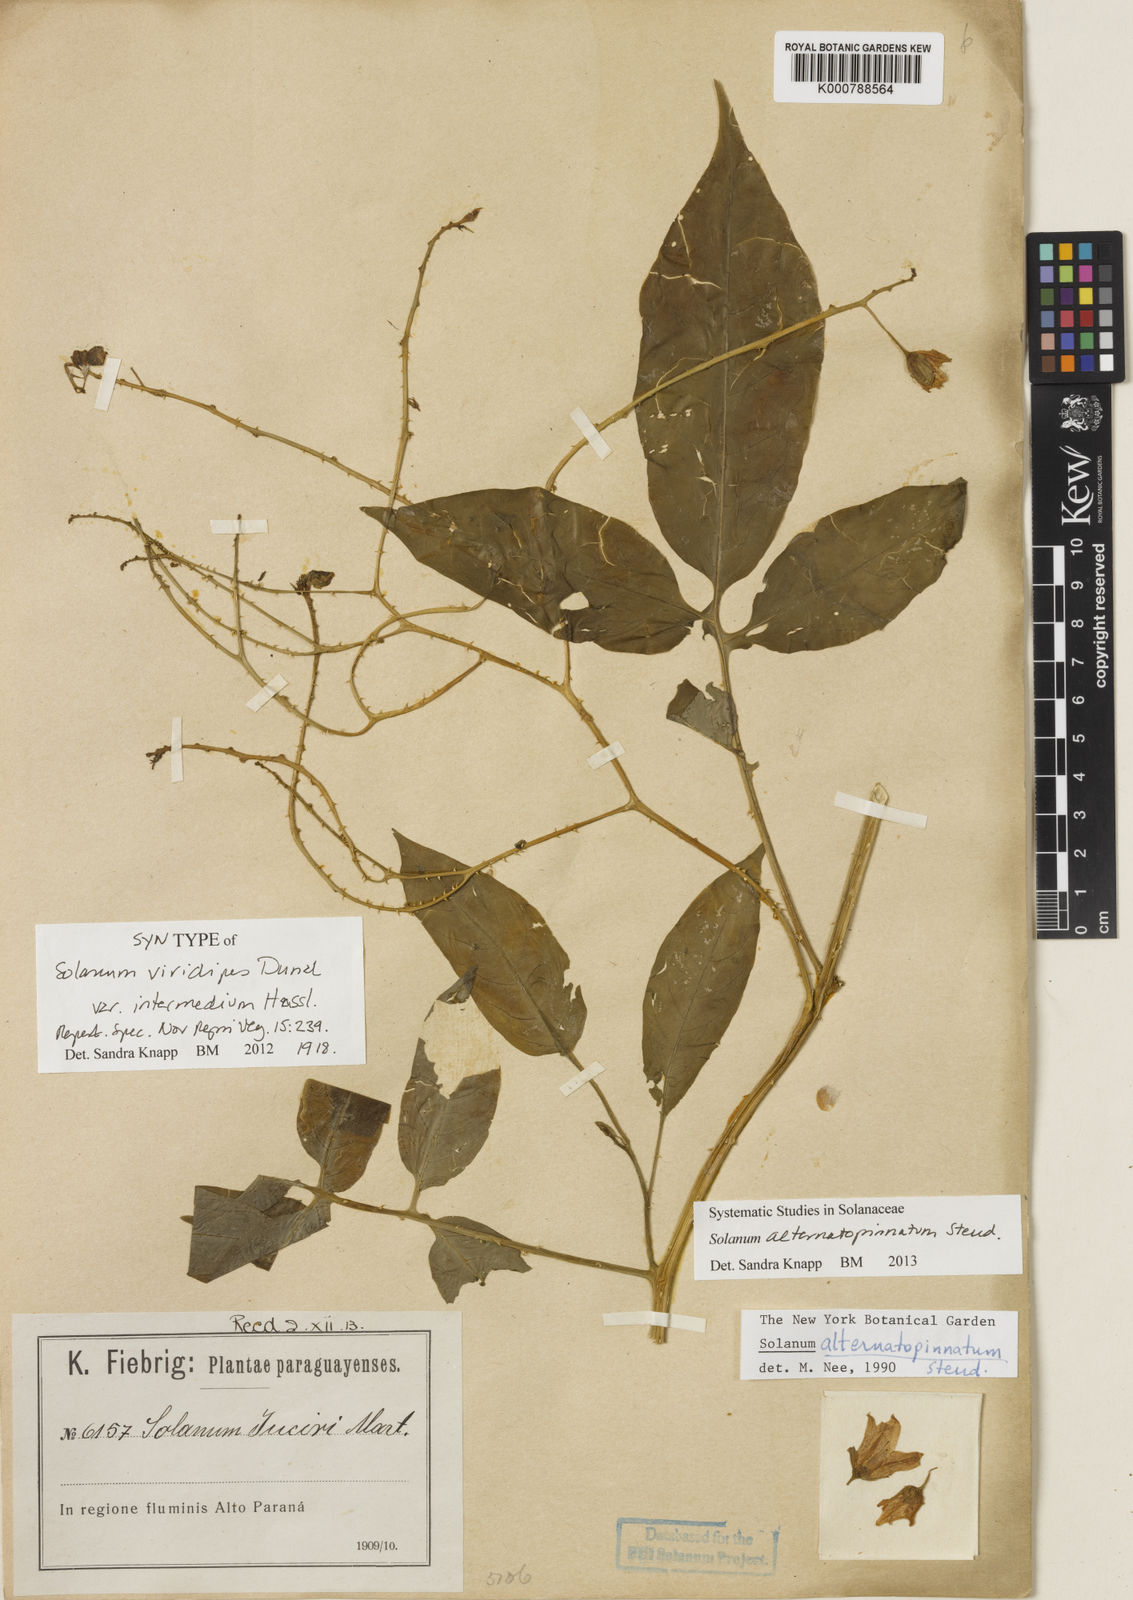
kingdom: Plantae
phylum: Tracheophyta
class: Magnoliopsida
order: Solanales
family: Solanaceae
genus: Solanum
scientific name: Solanum alternatopinnatum
